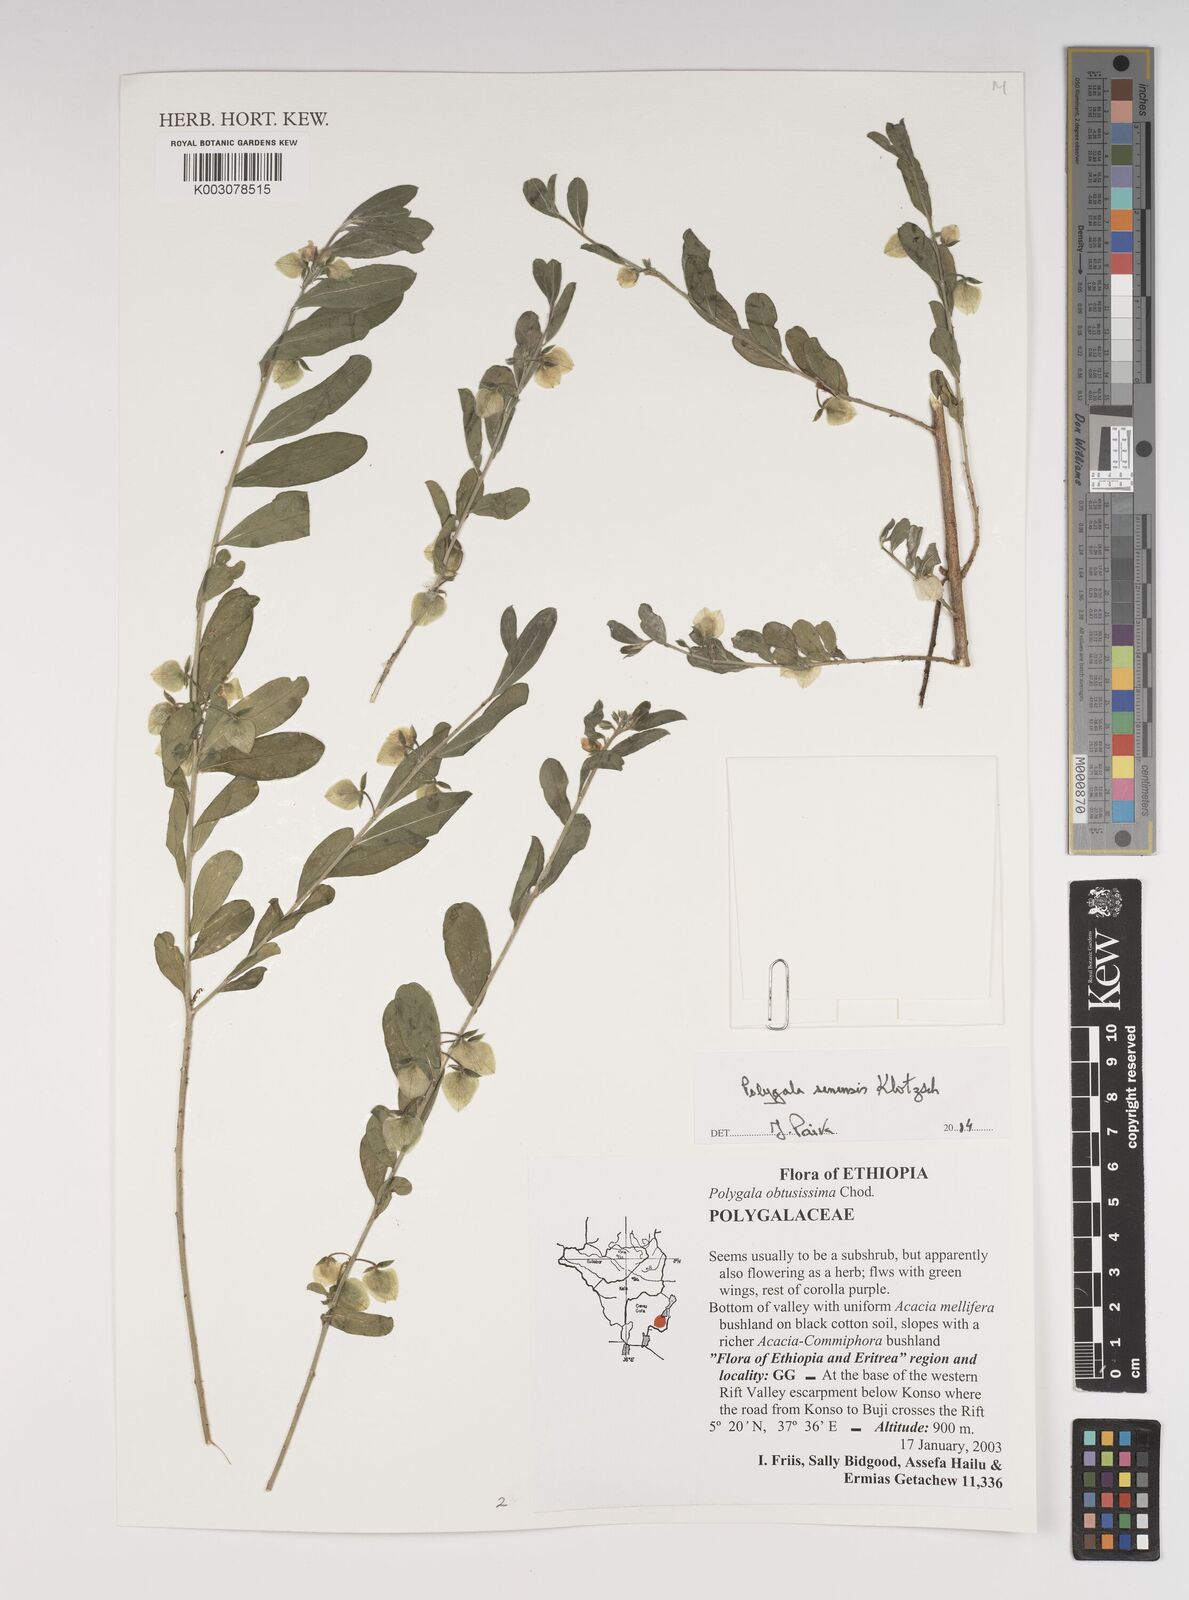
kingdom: Plantae
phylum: Tracheophyta
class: Magnoliopsida
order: Fabales
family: Polygalaceae
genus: Polygala
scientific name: Polygala senensis
